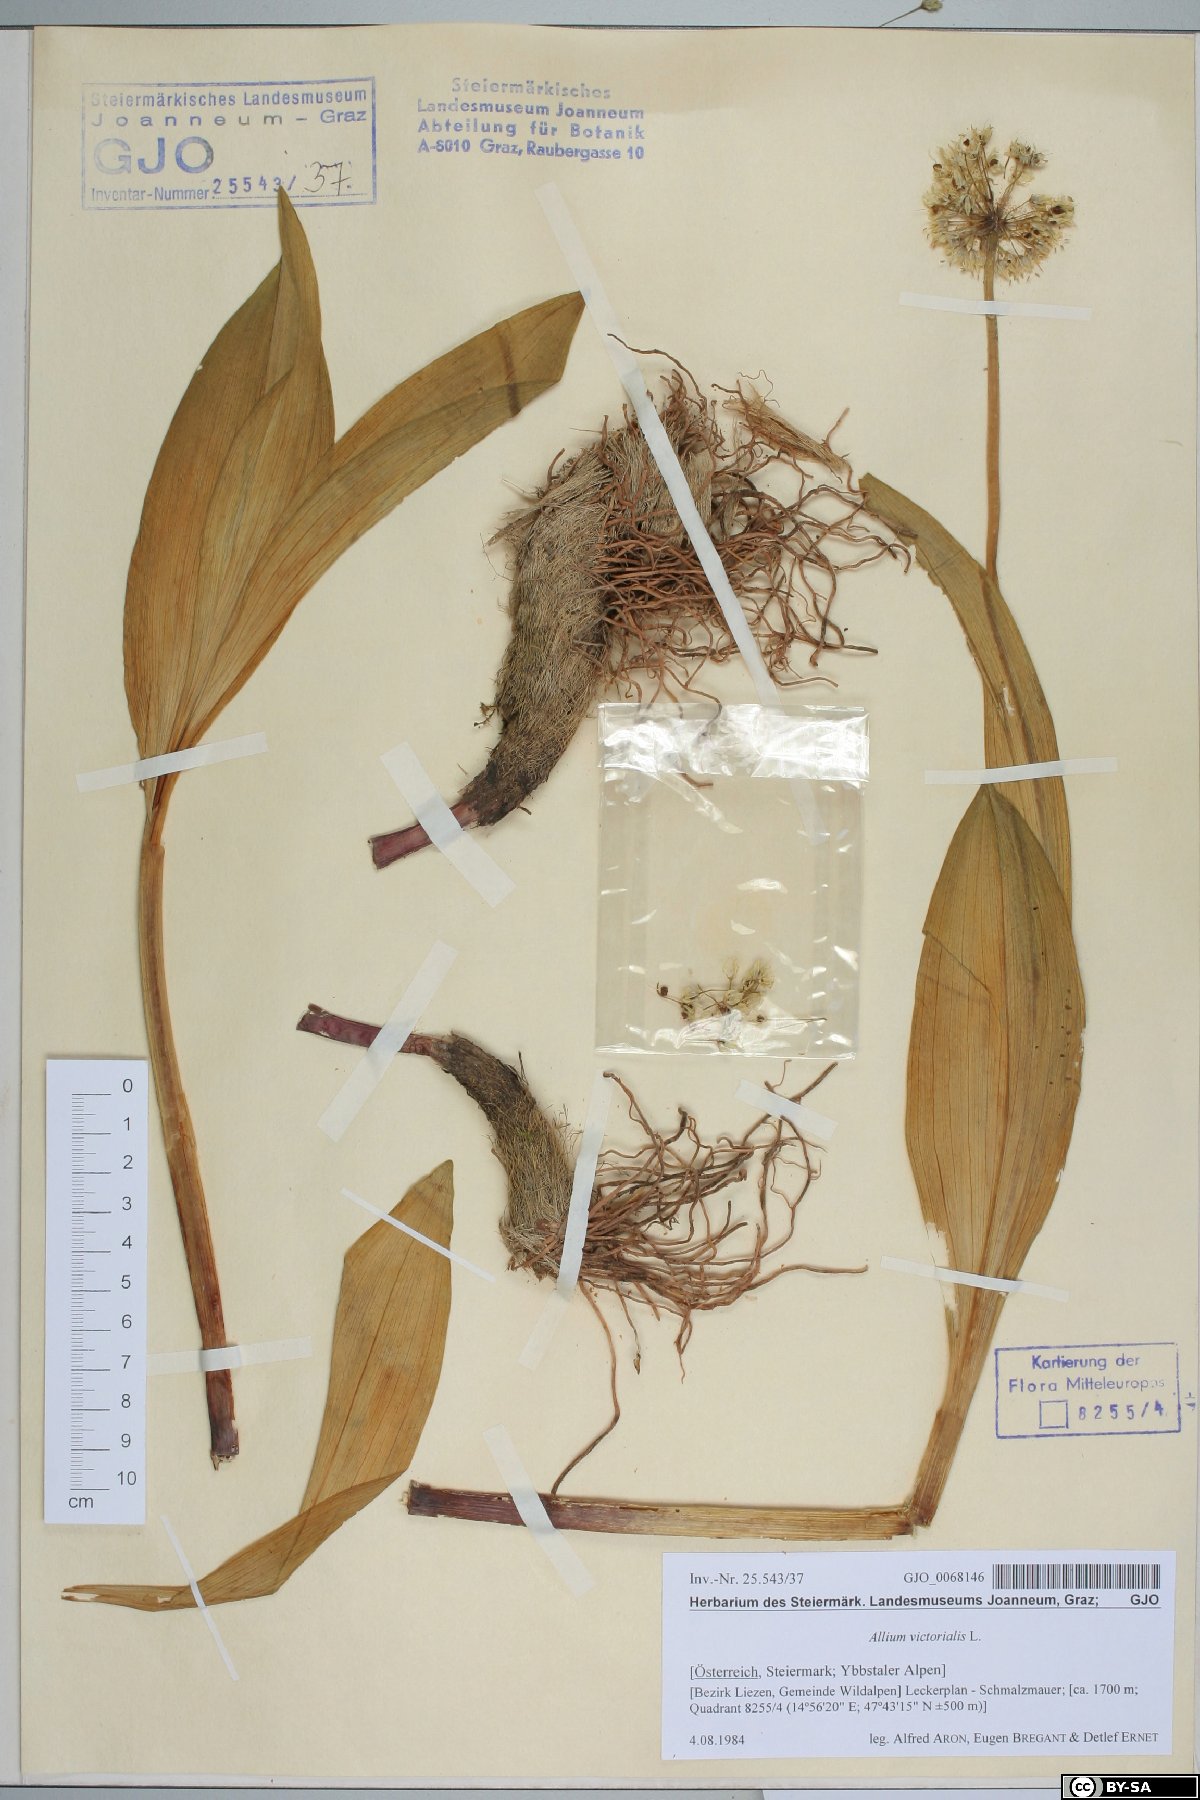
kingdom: Plantae
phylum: Tracheophyta
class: Liliopsida
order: Asparagales
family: Amaryllidaceae
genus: Allium
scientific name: Allium victorialis
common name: Alpine leek
